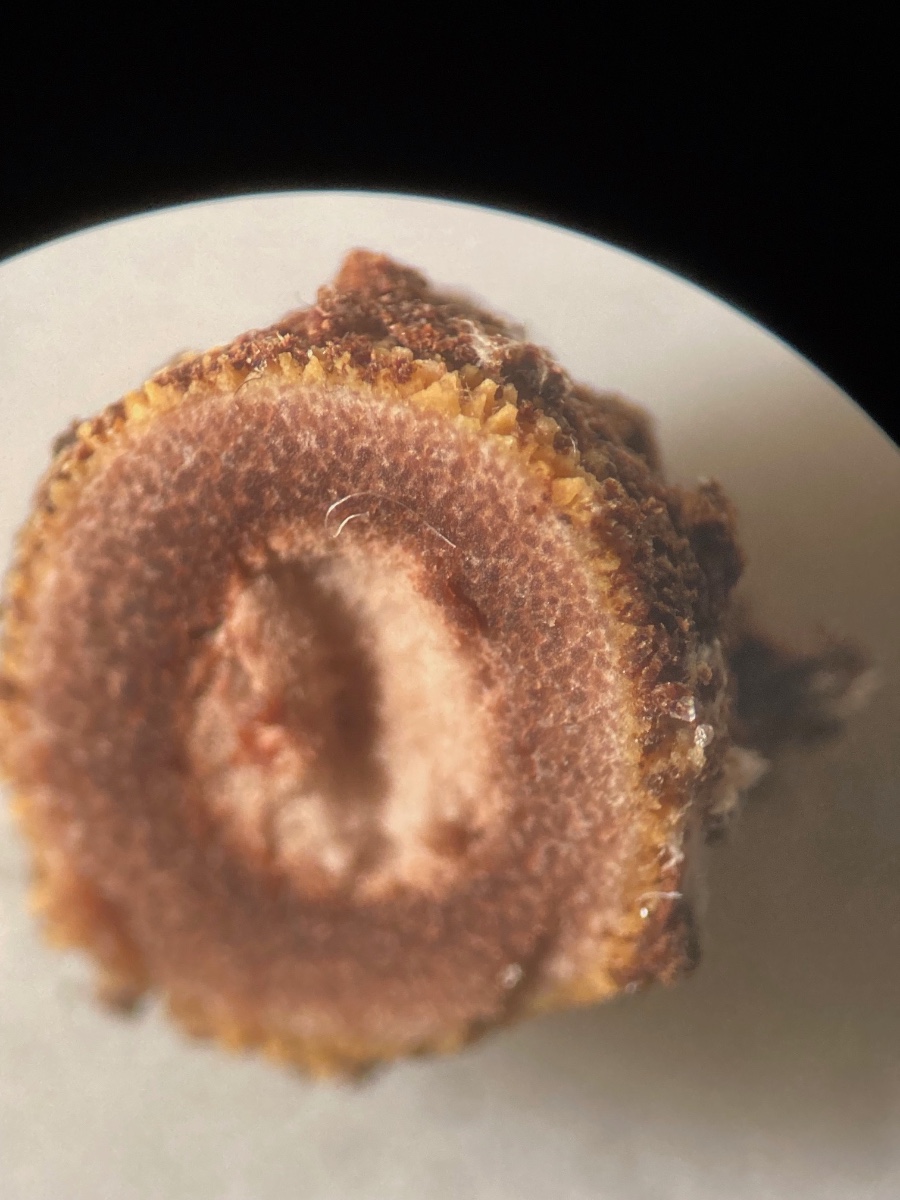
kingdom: Fungi
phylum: Ascomycota
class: Eurotiomycetes
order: Eurotiales
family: Elaphomycetaceae
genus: Elaphomyces
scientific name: Elaphomyces muricatus
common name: vortet hjortetrøffel
